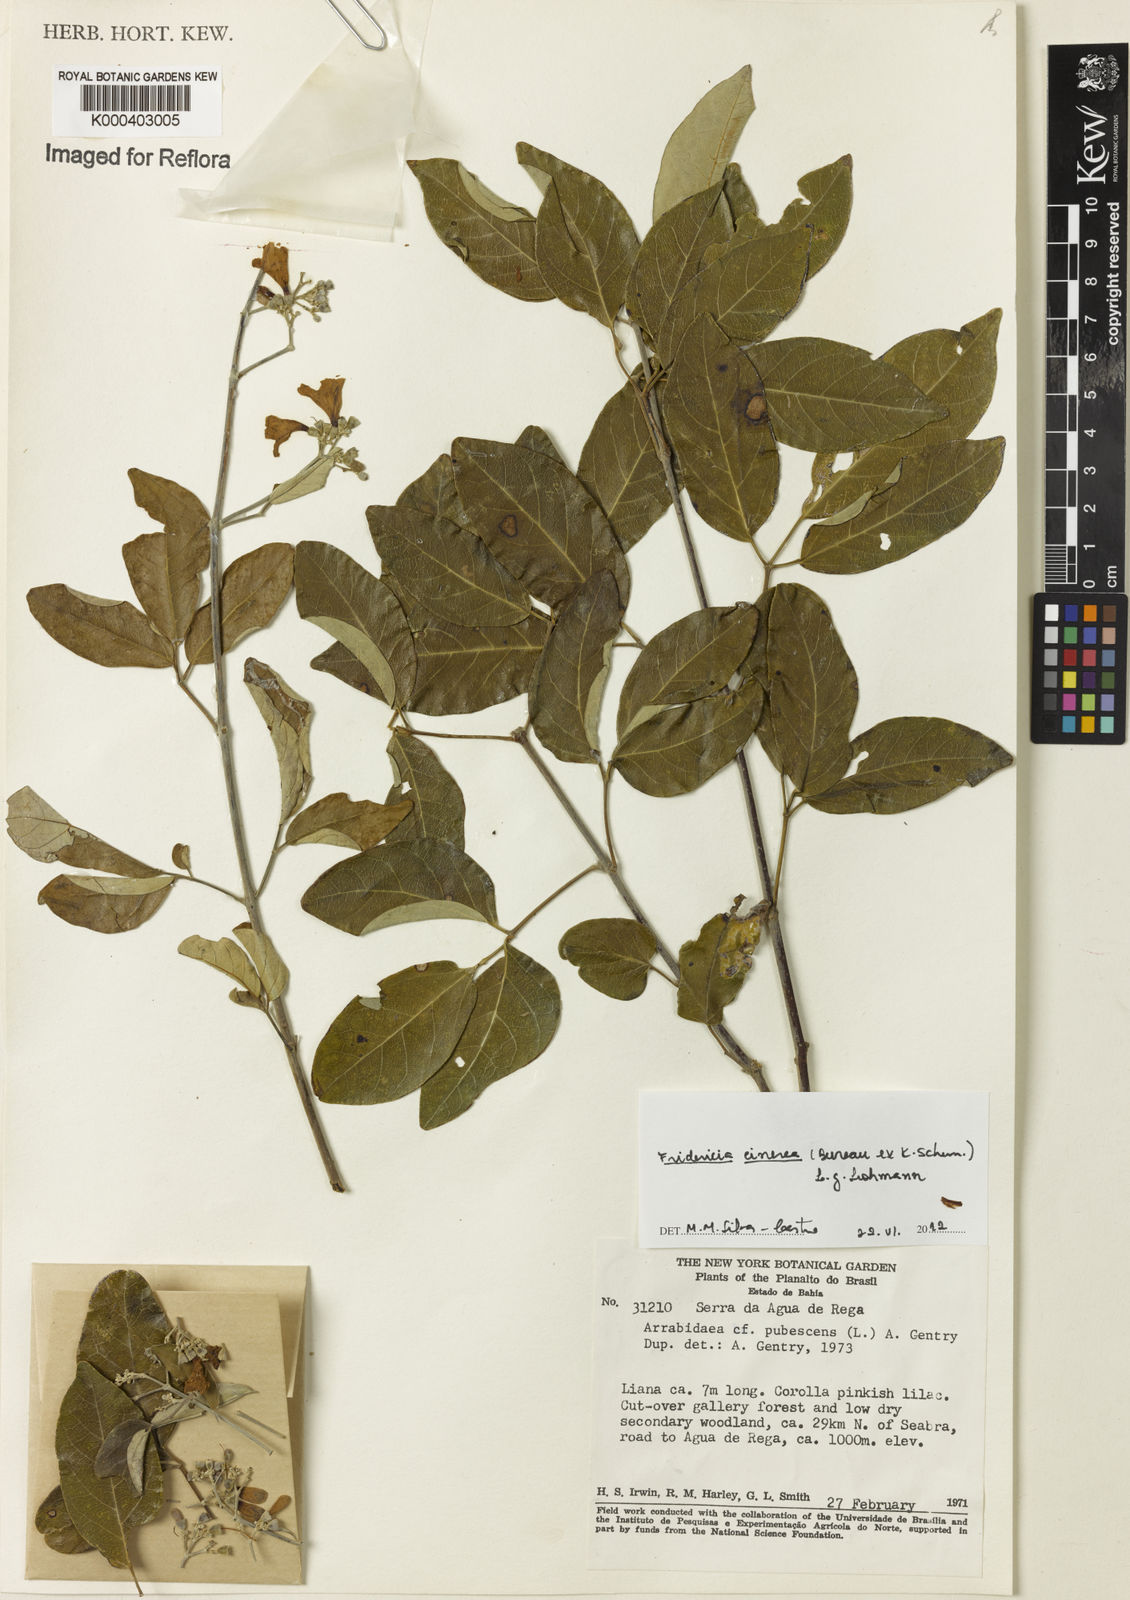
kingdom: Plantae
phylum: Tracheophyta
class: Magnoliopsida
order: Lamiales
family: Bignoniaceae
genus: Fridericia
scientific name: Fridericia cinerea
